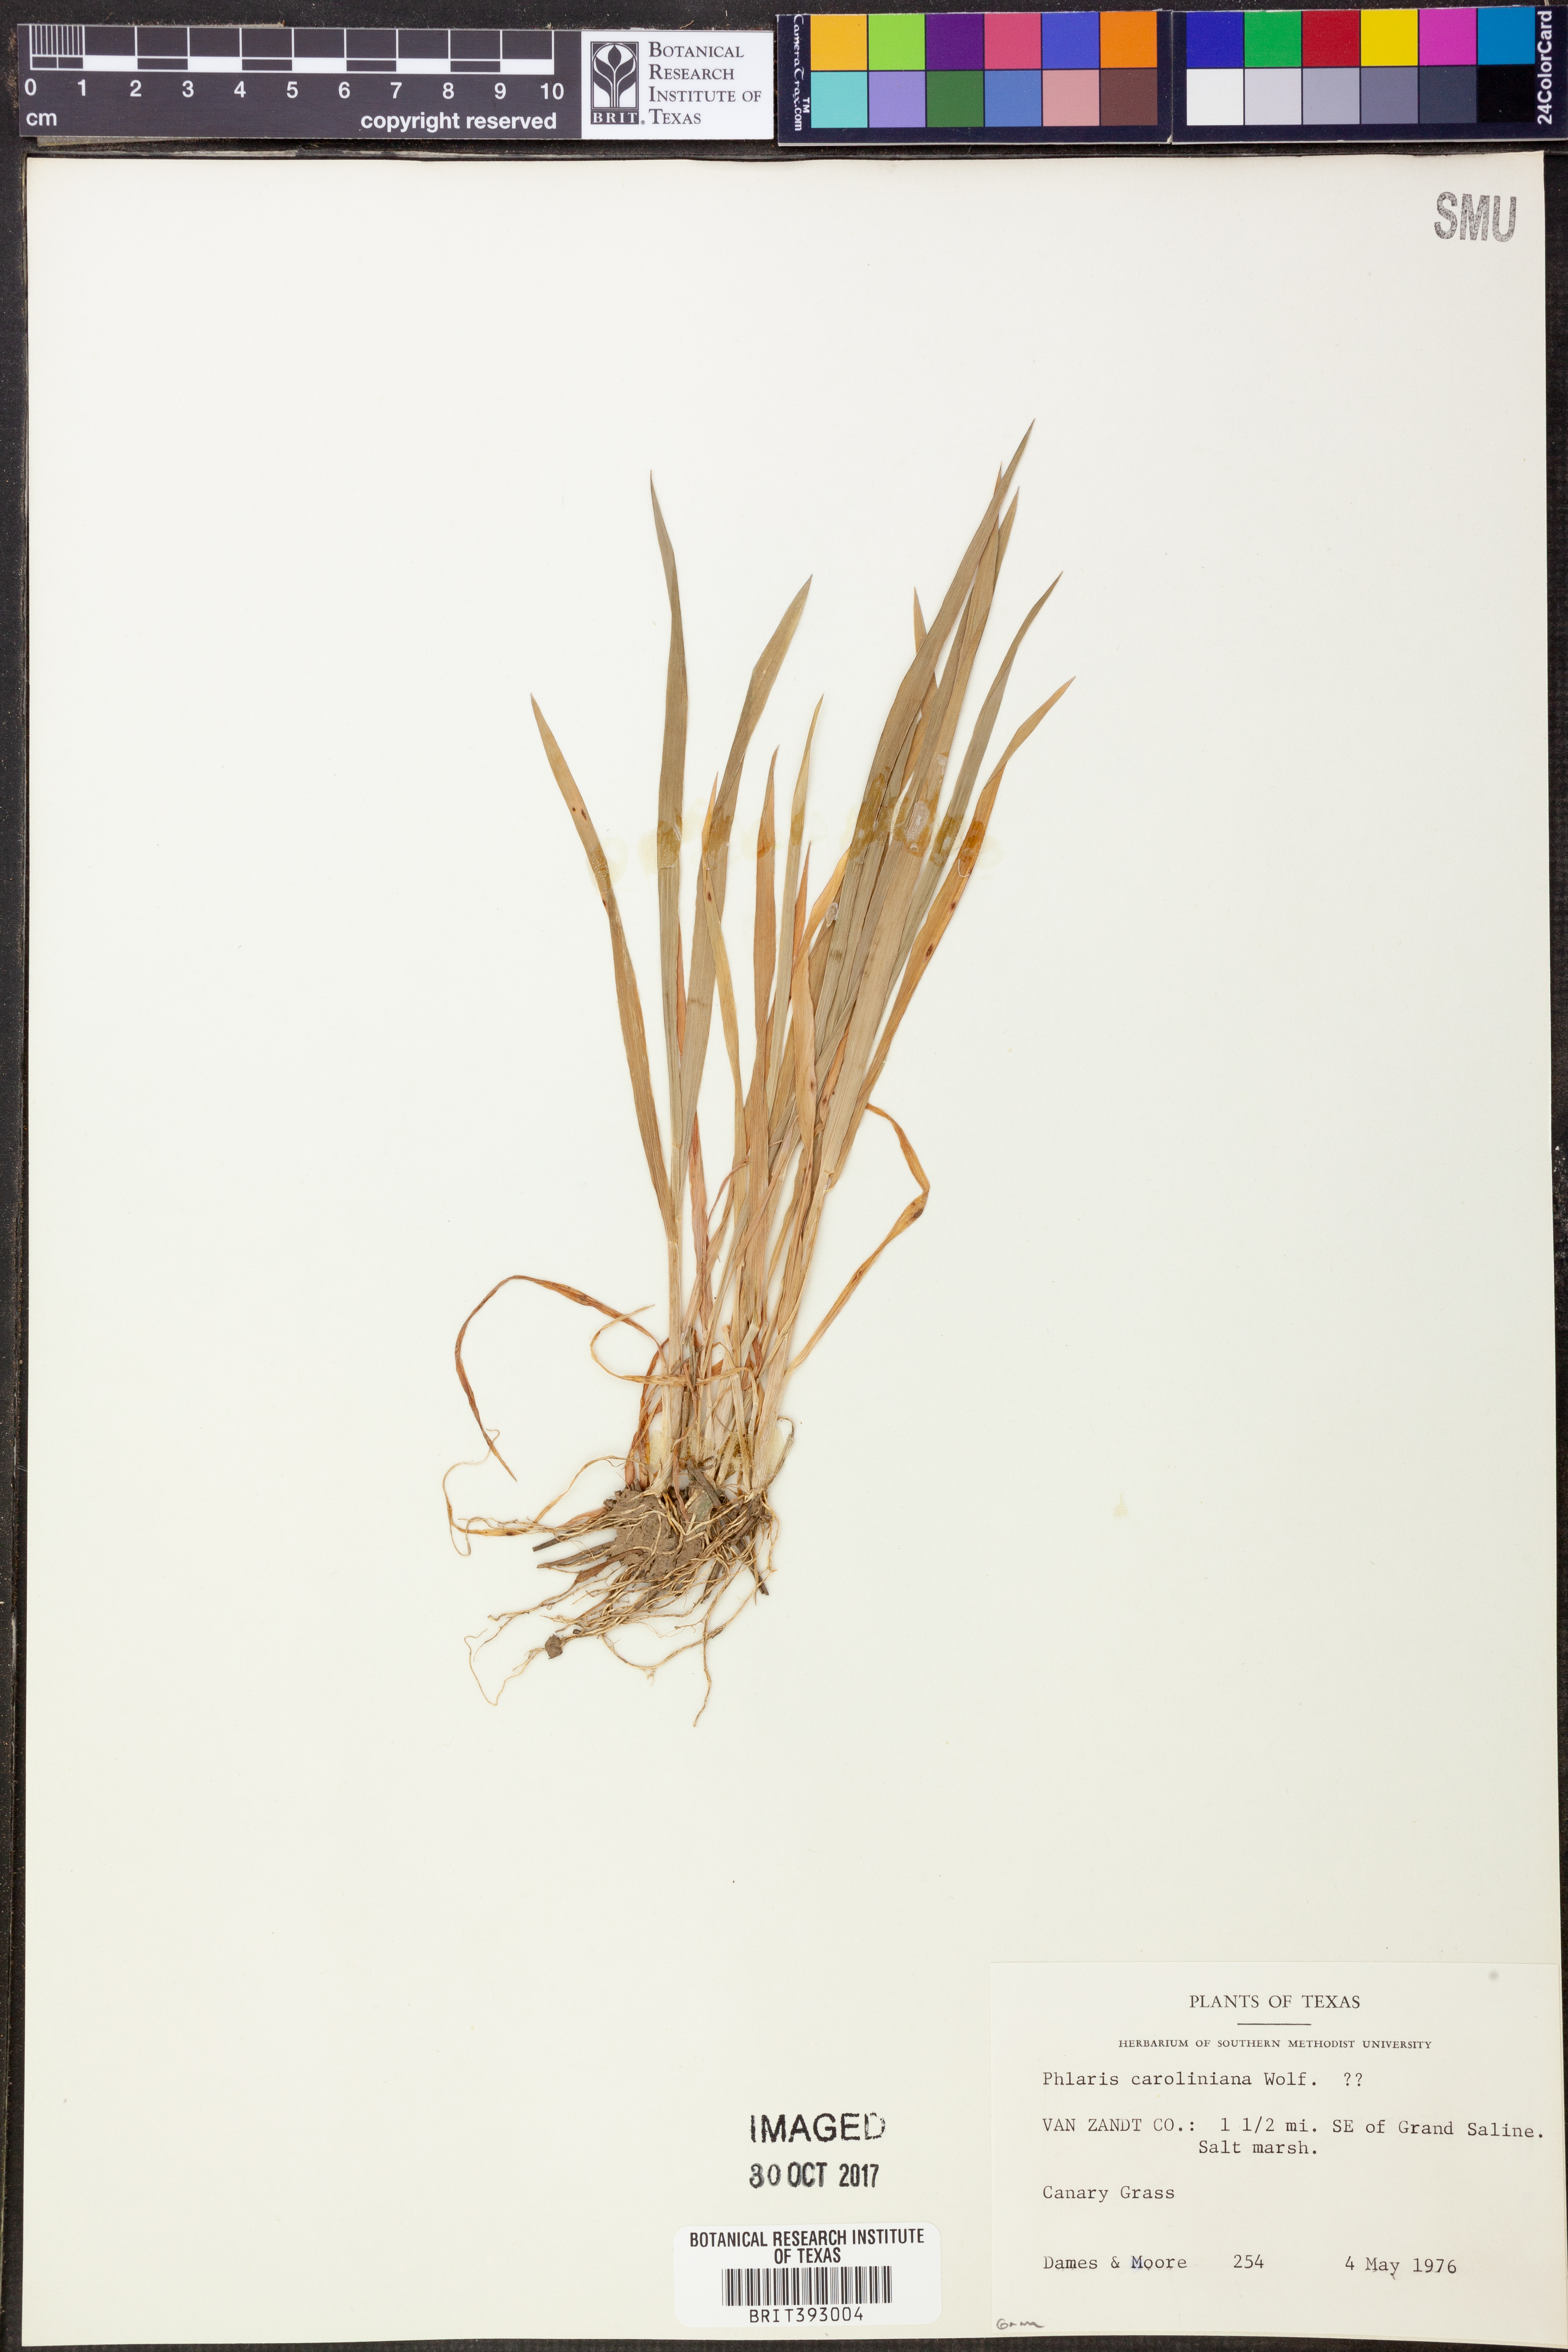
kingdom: Plantae
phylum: Tracheophyta
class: Liliopsida
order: Poales
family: Poaceae
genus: Phalaris
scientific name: Phalaris caroliniana
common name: May grass
